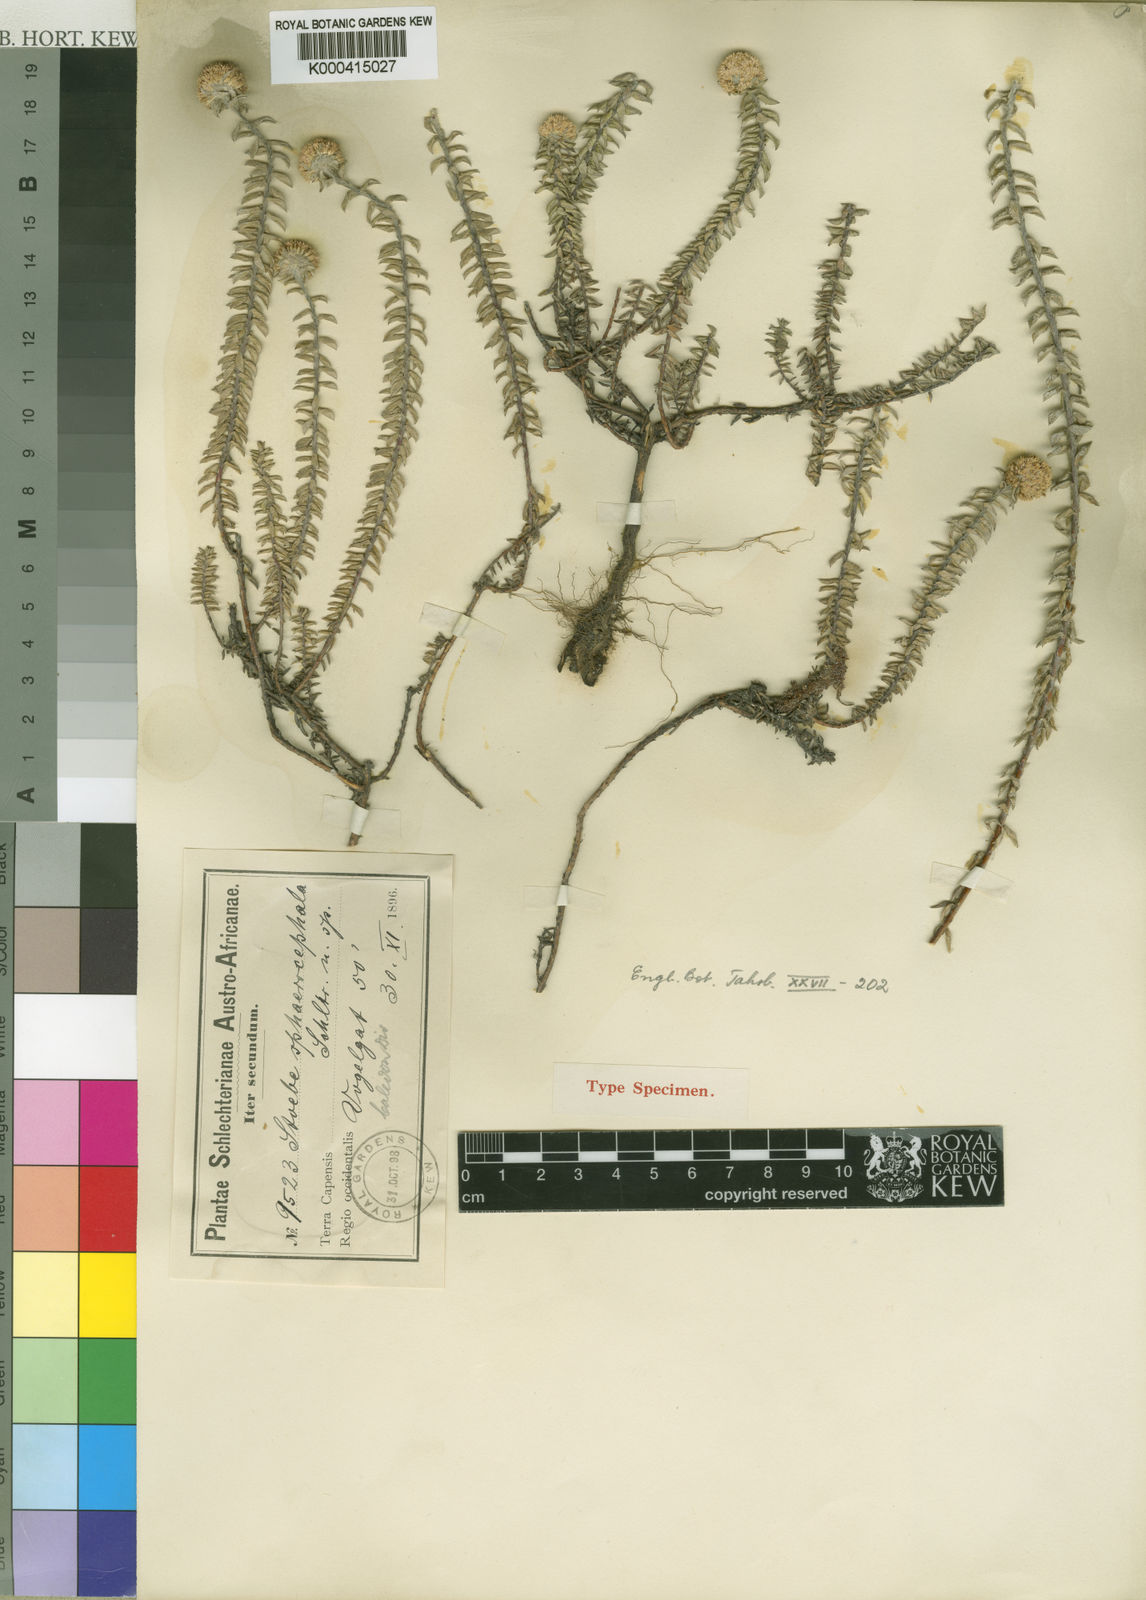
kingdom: Plantae
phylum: Tracheophyta
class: Magnoliopsida
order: Asterales
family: Asteraceae
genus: Stoebe
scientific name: Stoebe cyathuloides
